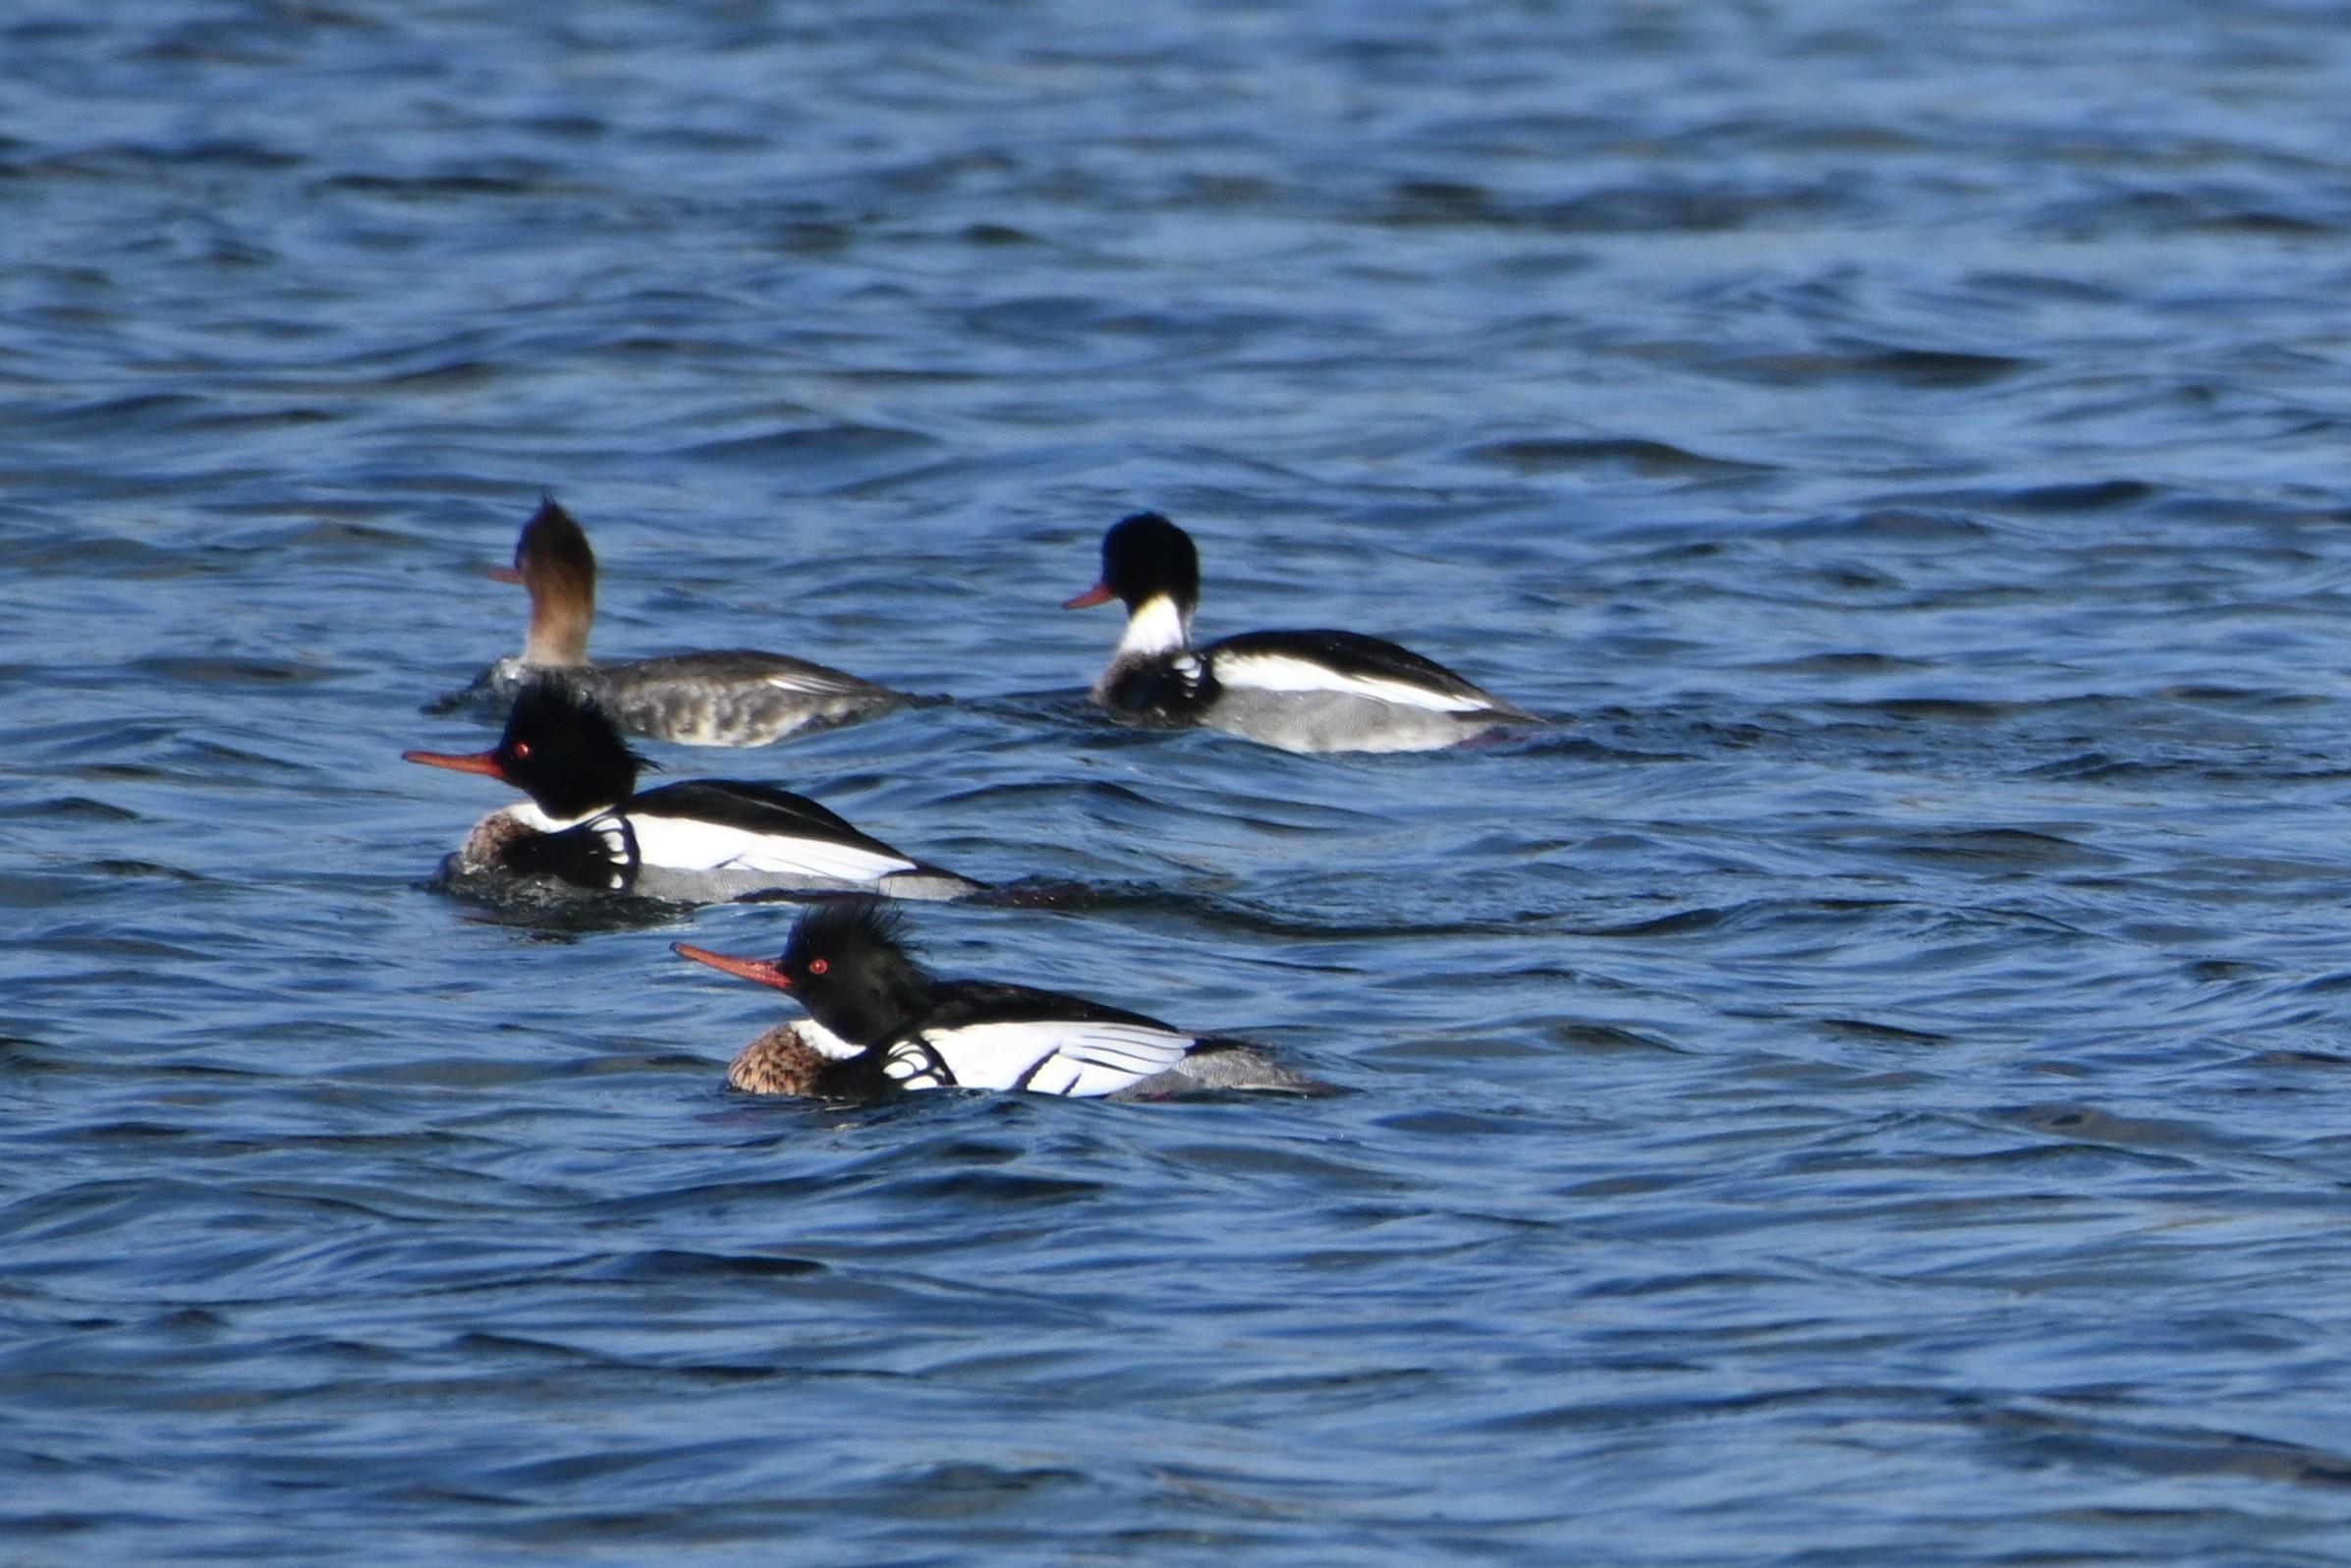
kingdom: Animalia
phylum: Chordata
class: Aves
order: Anseriformes
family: Anatidae
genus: Mergus
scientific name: Mergus serrator
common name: Toppet skallesluger
